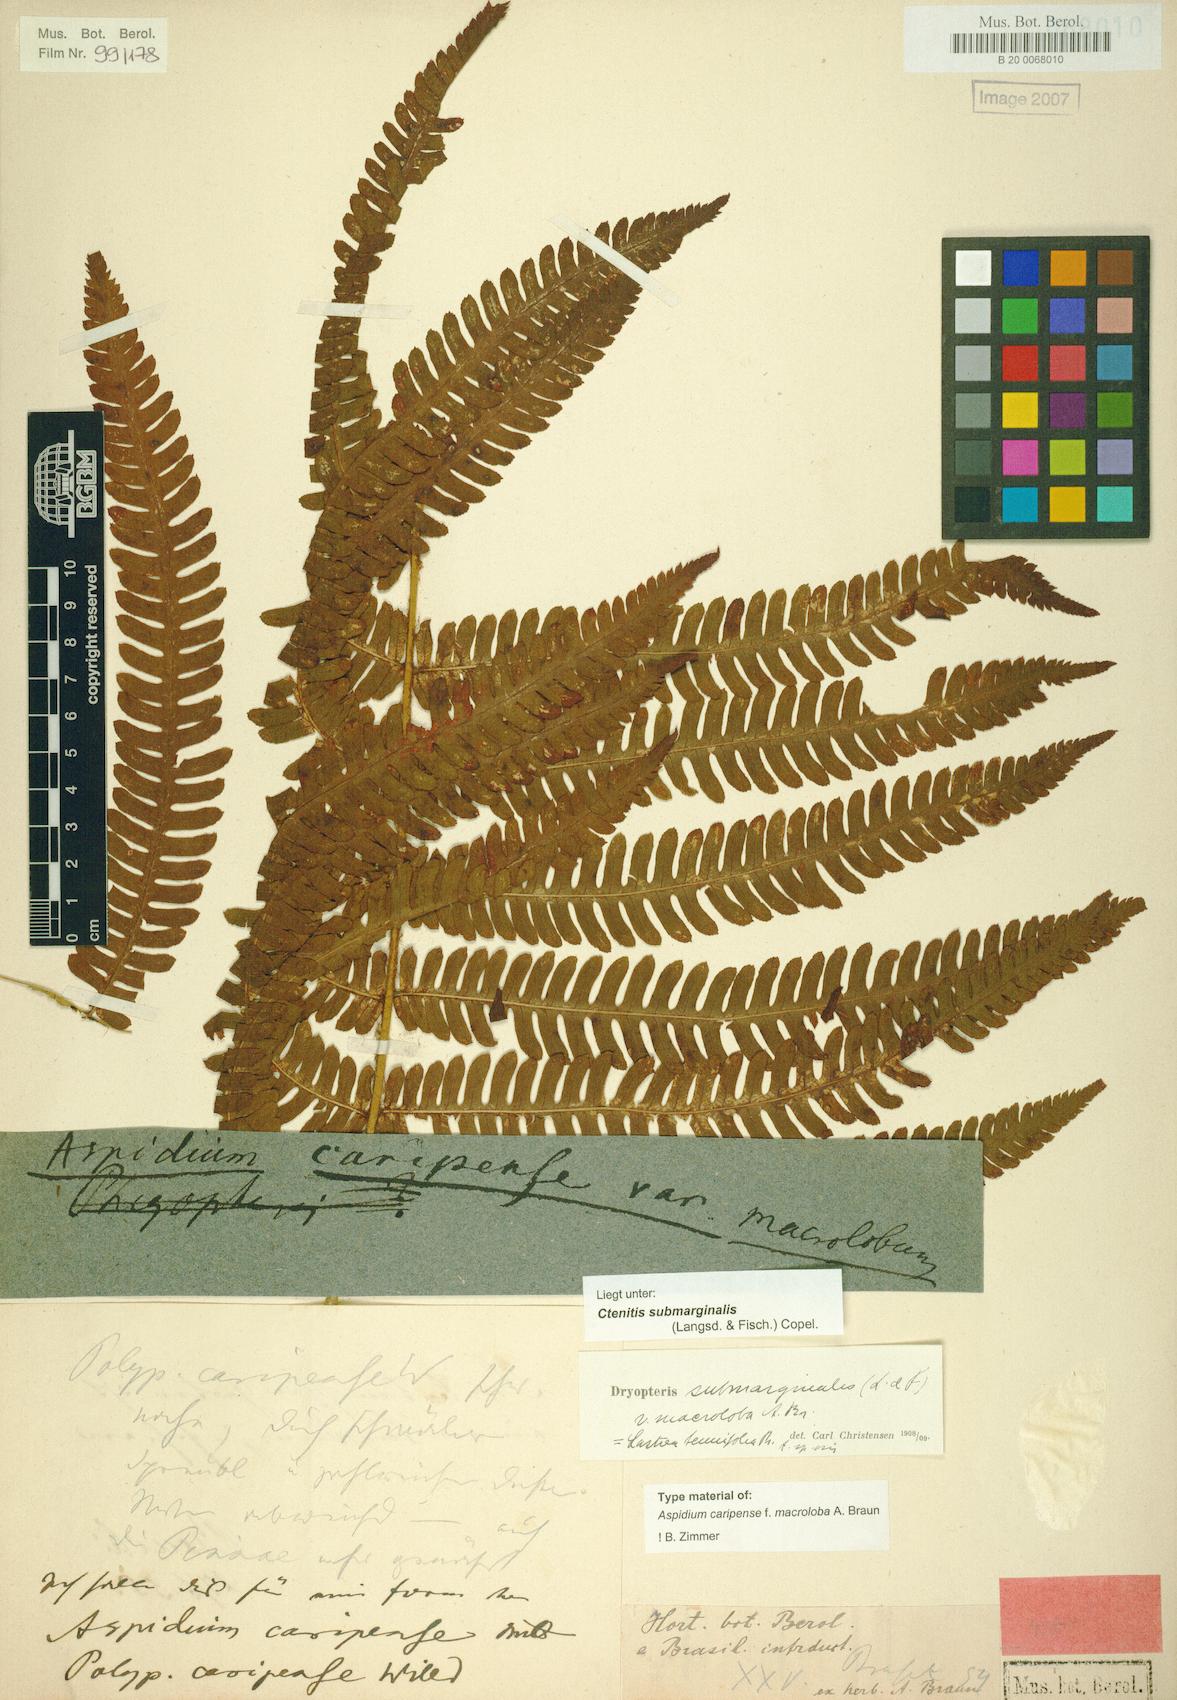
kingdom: Plantae
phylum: Tracheophyta
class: Polypodiopsida
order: Polypodiales
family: Dryopteridaceae
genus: Ctenitis
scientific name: Ctenitis submarginalis
